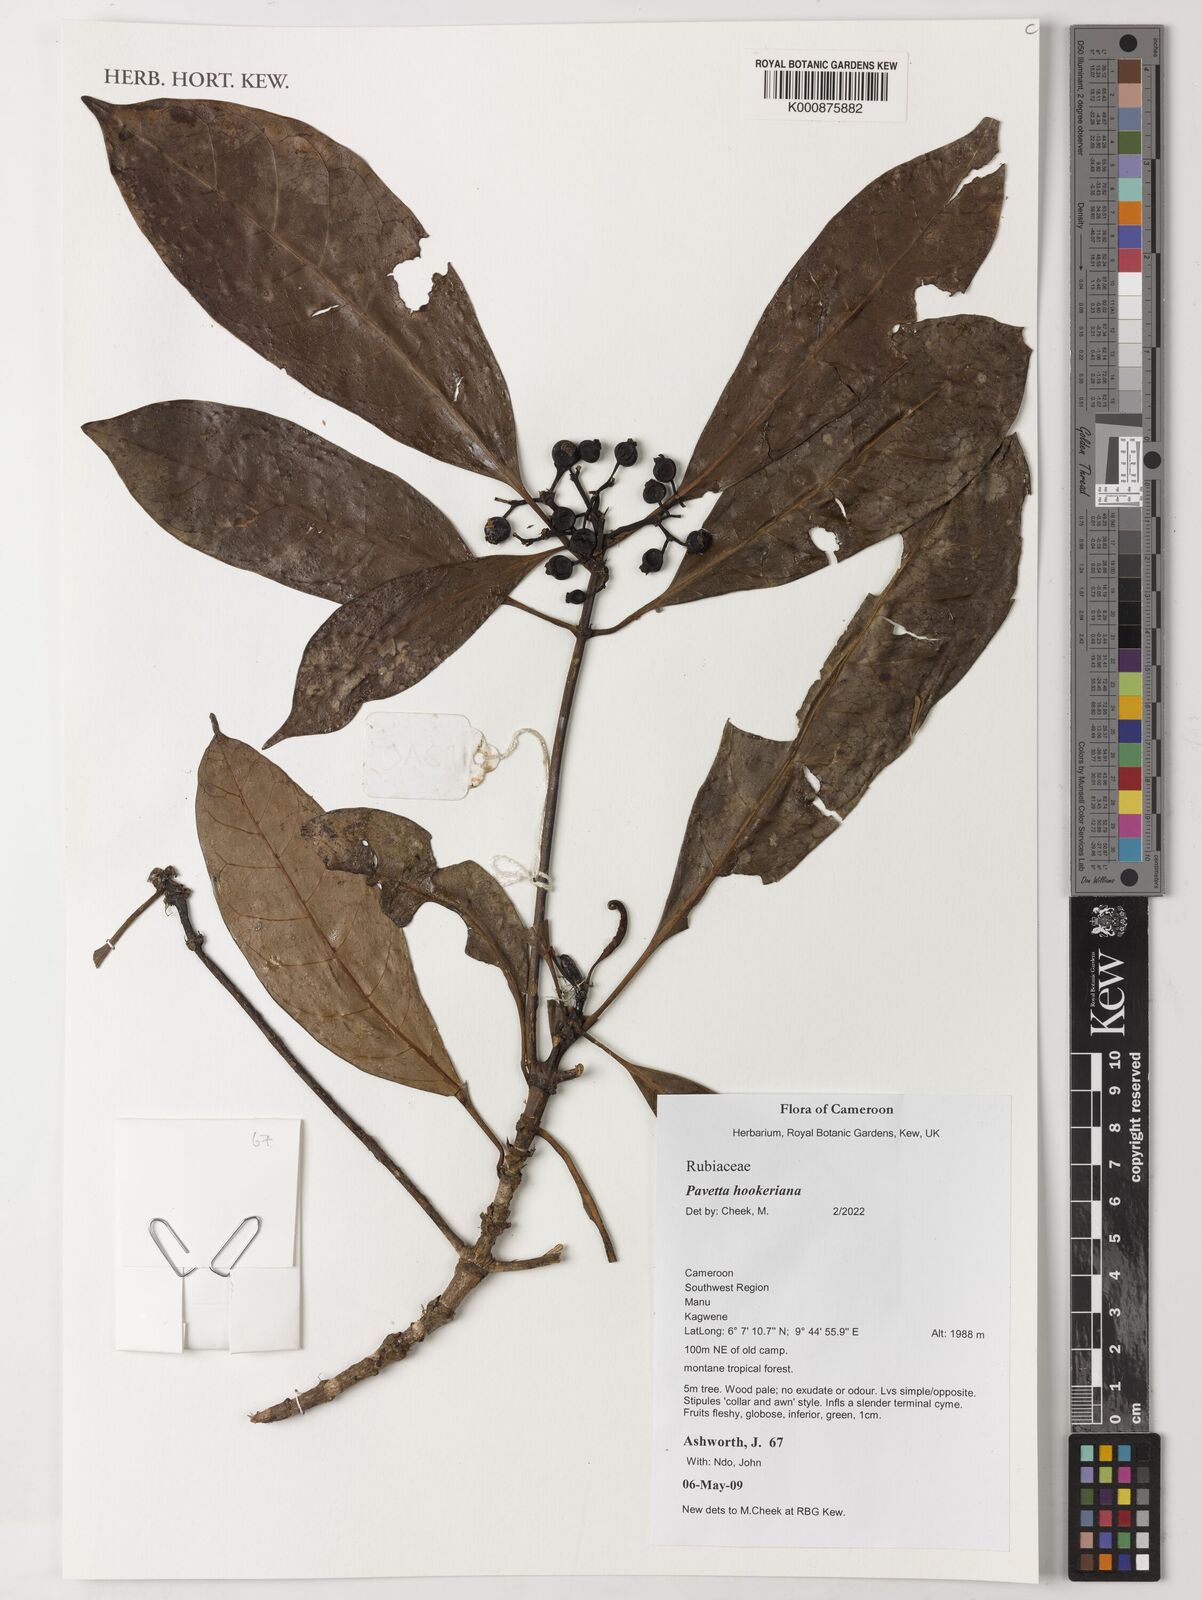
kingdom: Plantae
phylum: Tracheophyta
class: Magnoliopsida
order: Gentianales
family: Rubiaceae
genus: Pavetta
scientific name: Pavetta hookeriana
